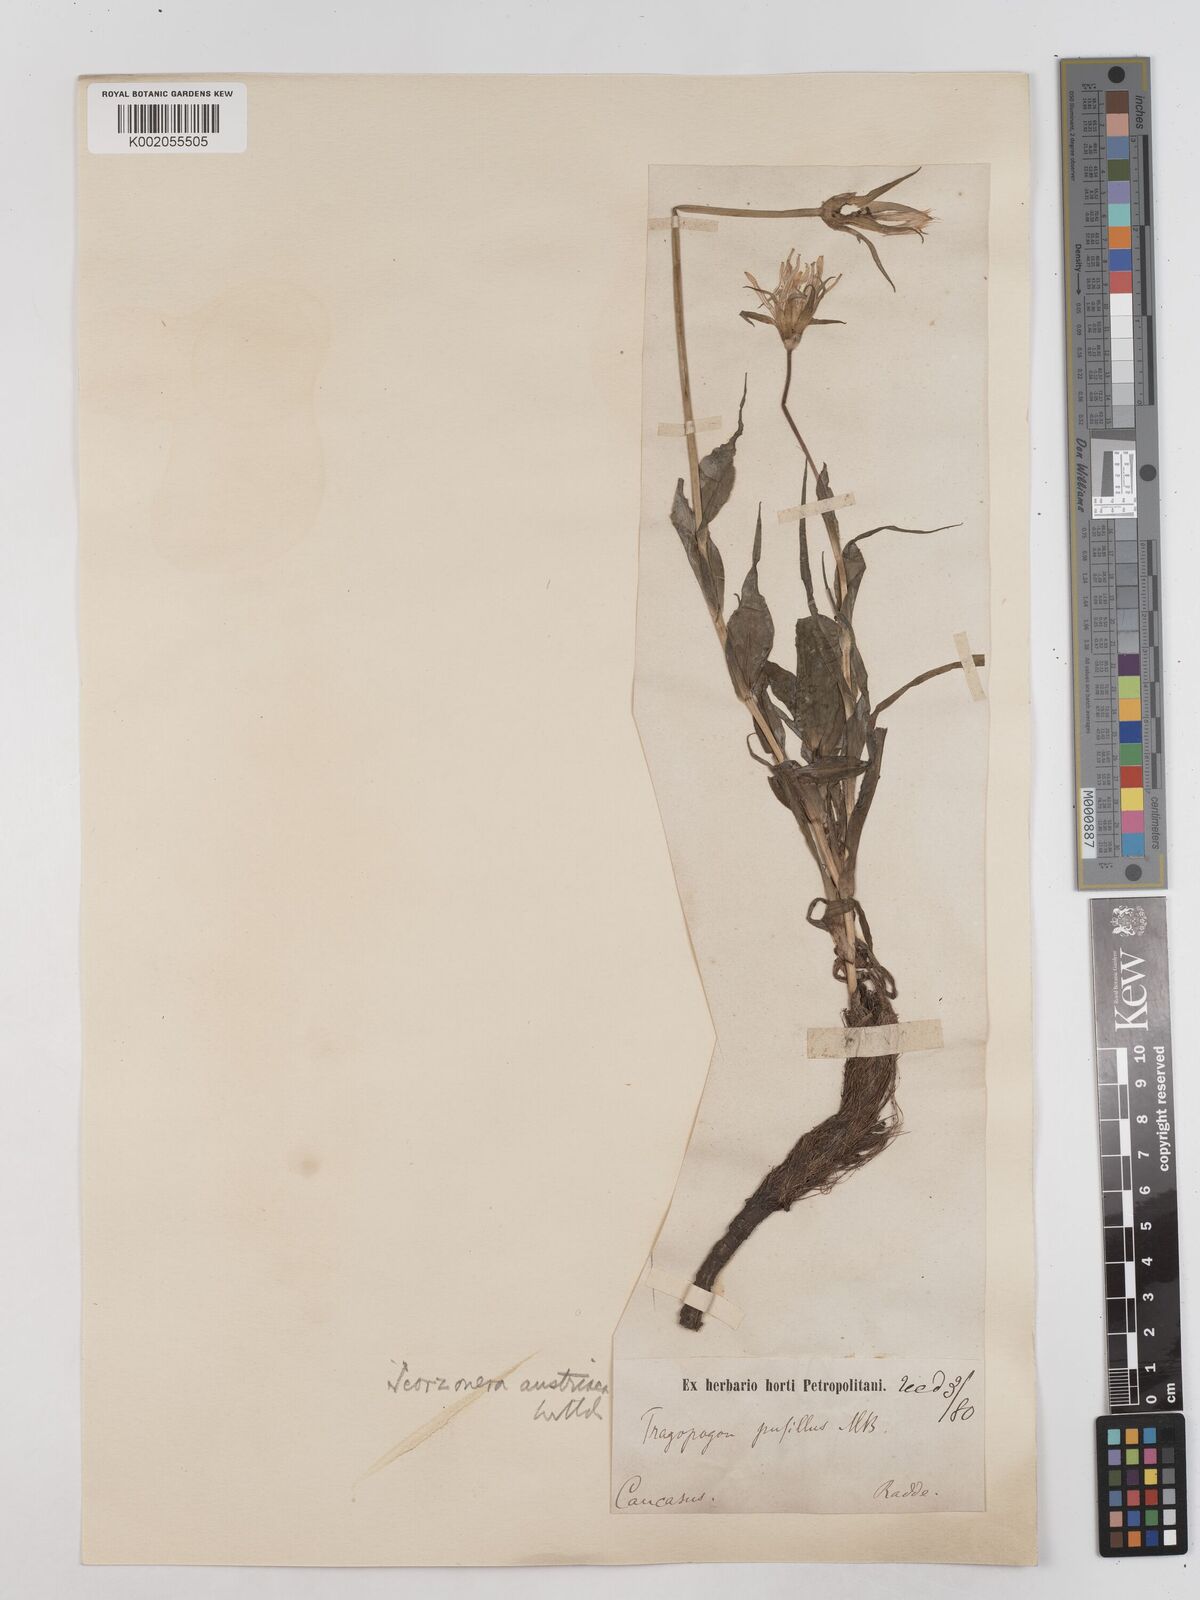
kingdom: Plantae
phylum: Tracheophyta
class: Magnoliopsida
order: Asterales
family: Asteraceae
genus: Takhtajaniantha
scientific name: Takhtajaniantha austriaca
